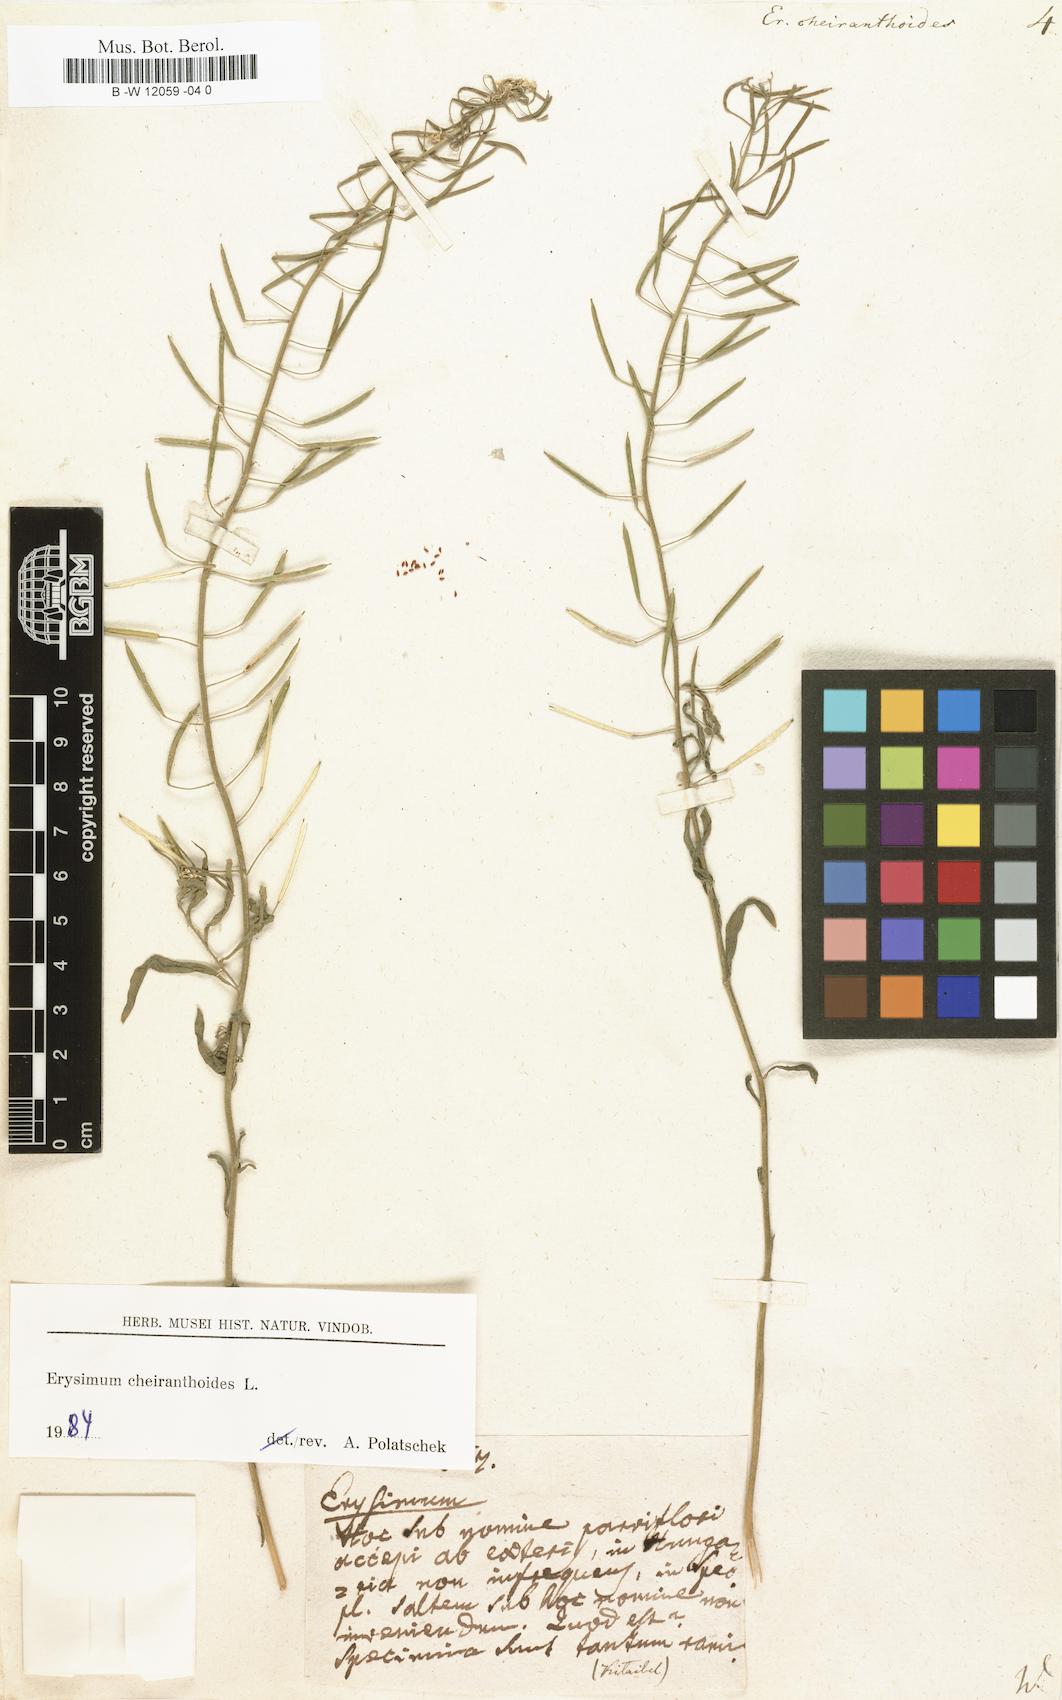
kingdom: Plantae
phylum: Tracheophyta
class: Magnoliopsida
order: Brassicales
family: Brassicaceae
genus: Erysimum
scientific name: Erysimum cheiranthoides
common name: Treacle mustard
